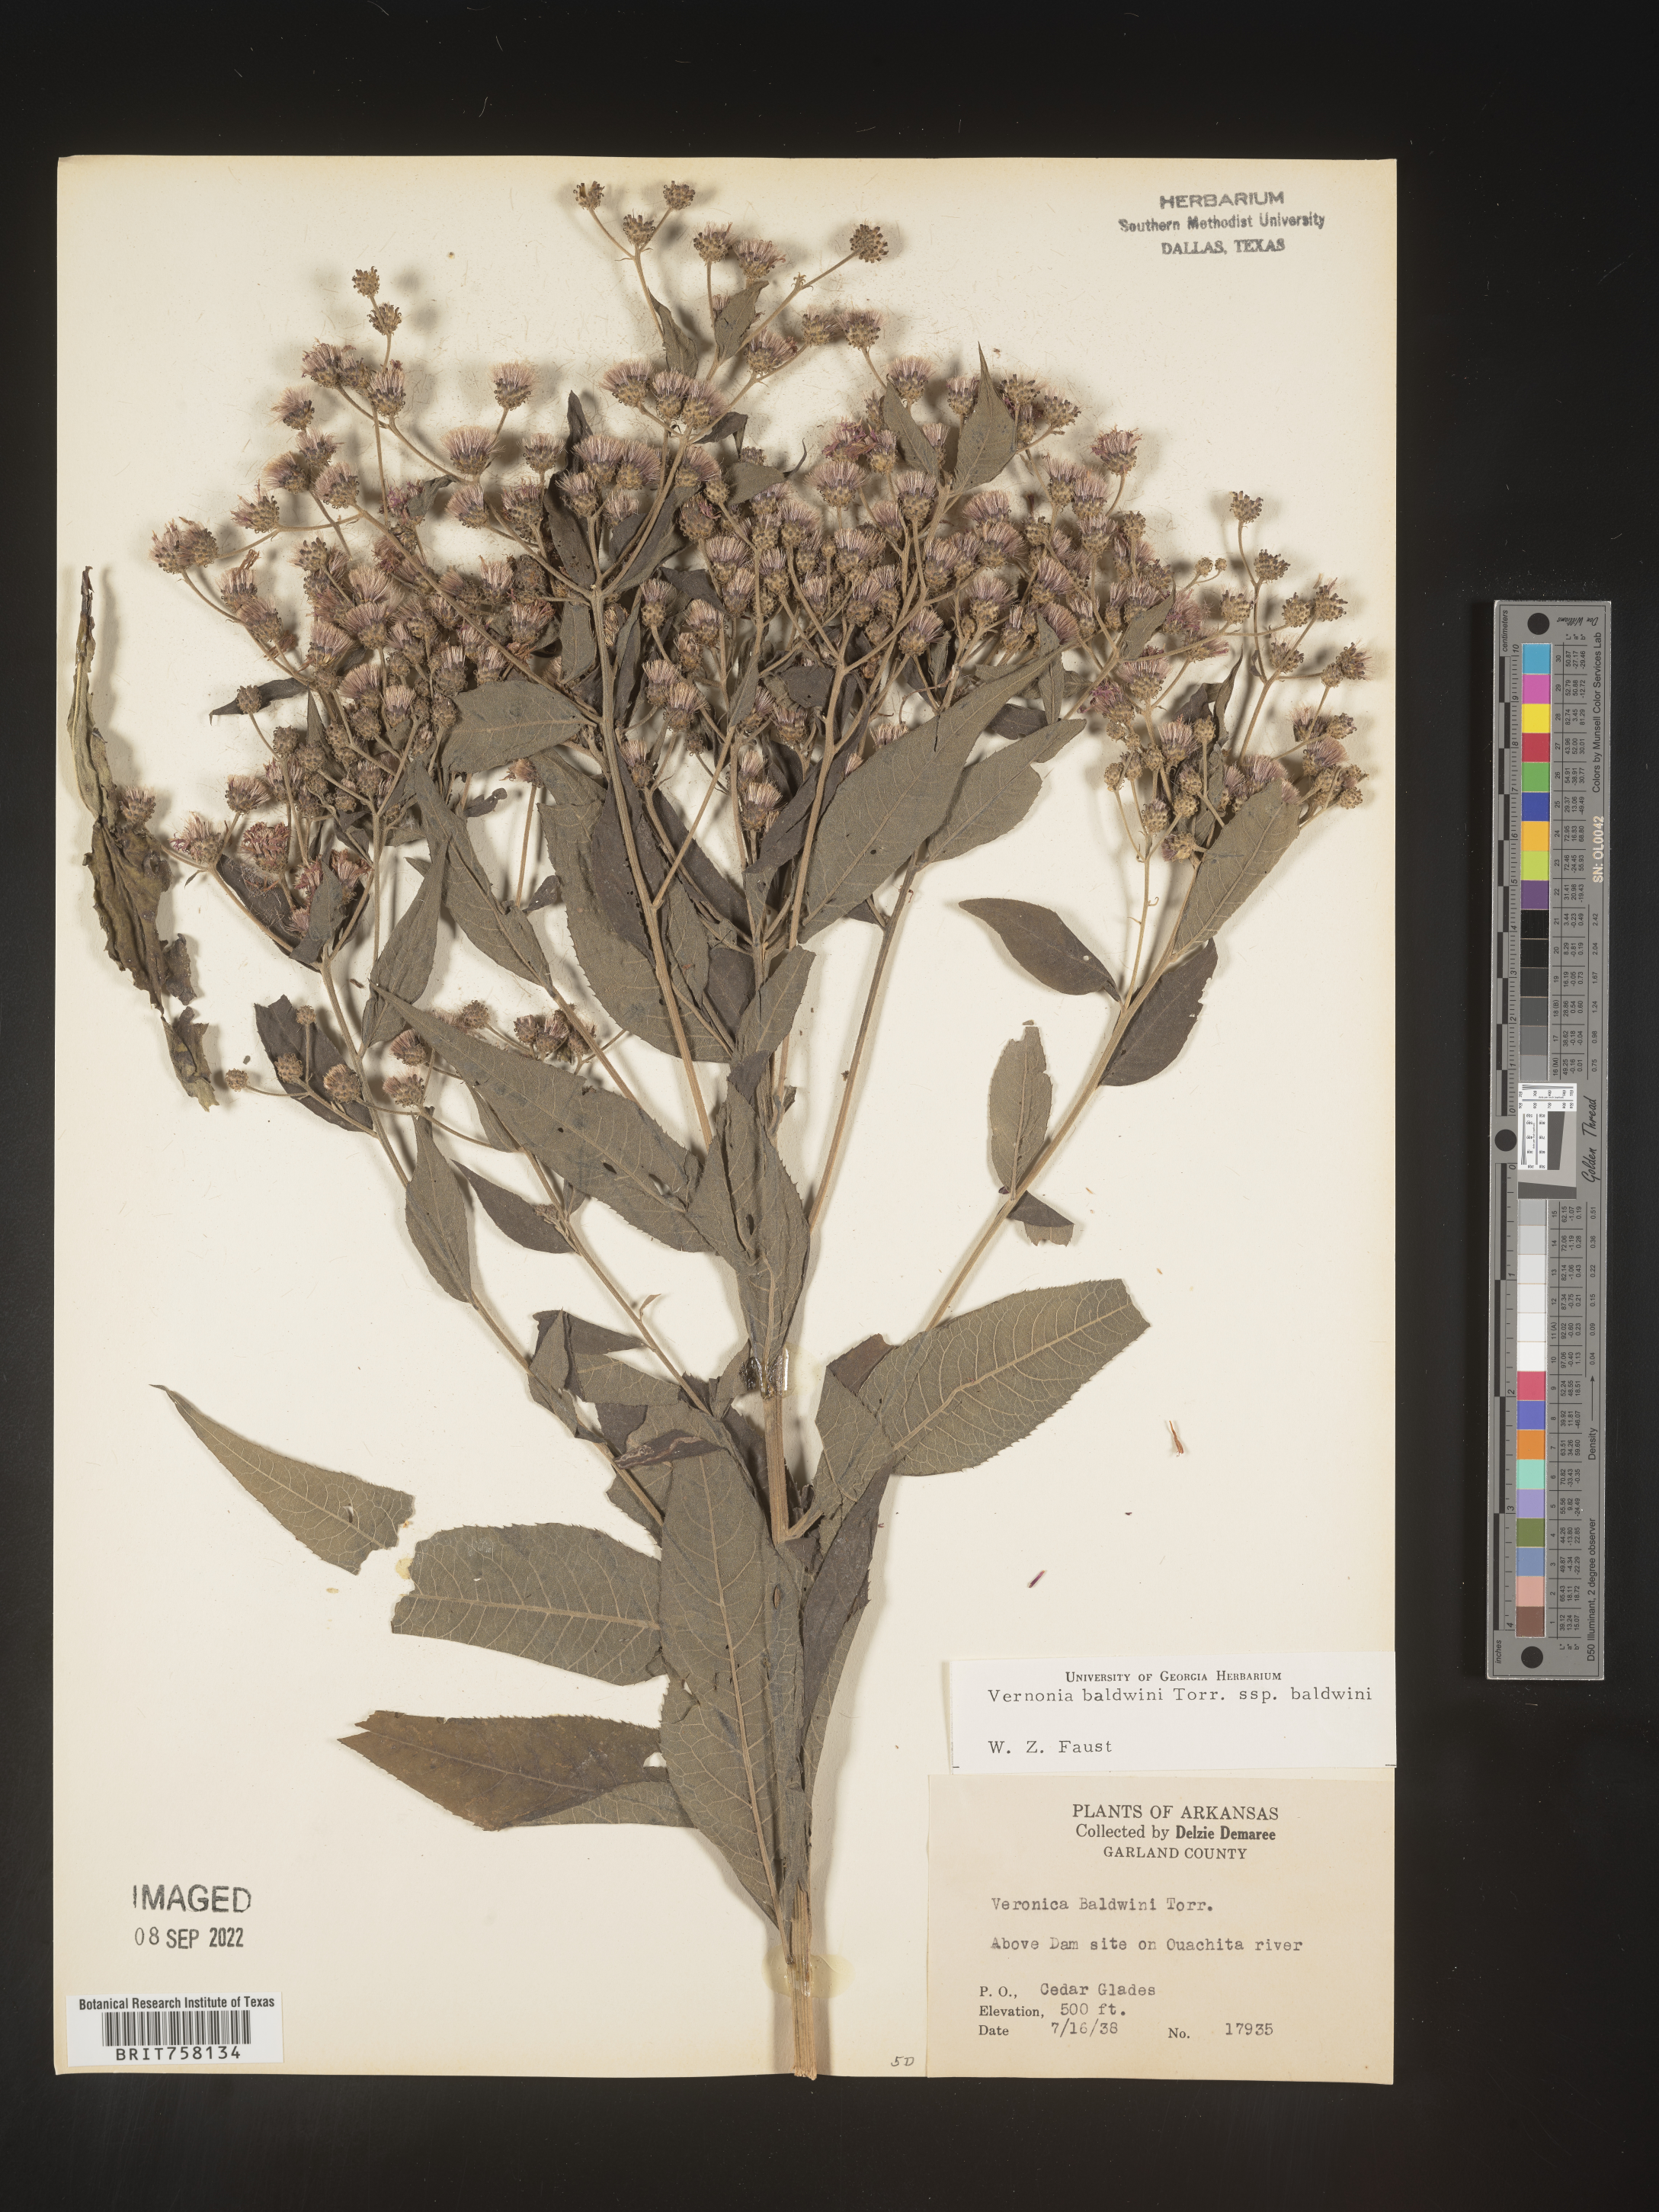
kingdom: Plantae
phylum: Tracheophyta
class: Magnoliopsida
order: Asterales
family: Asteraceae
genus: Vernonia
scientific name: Vernonia baldwinii
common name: Western ironweed
